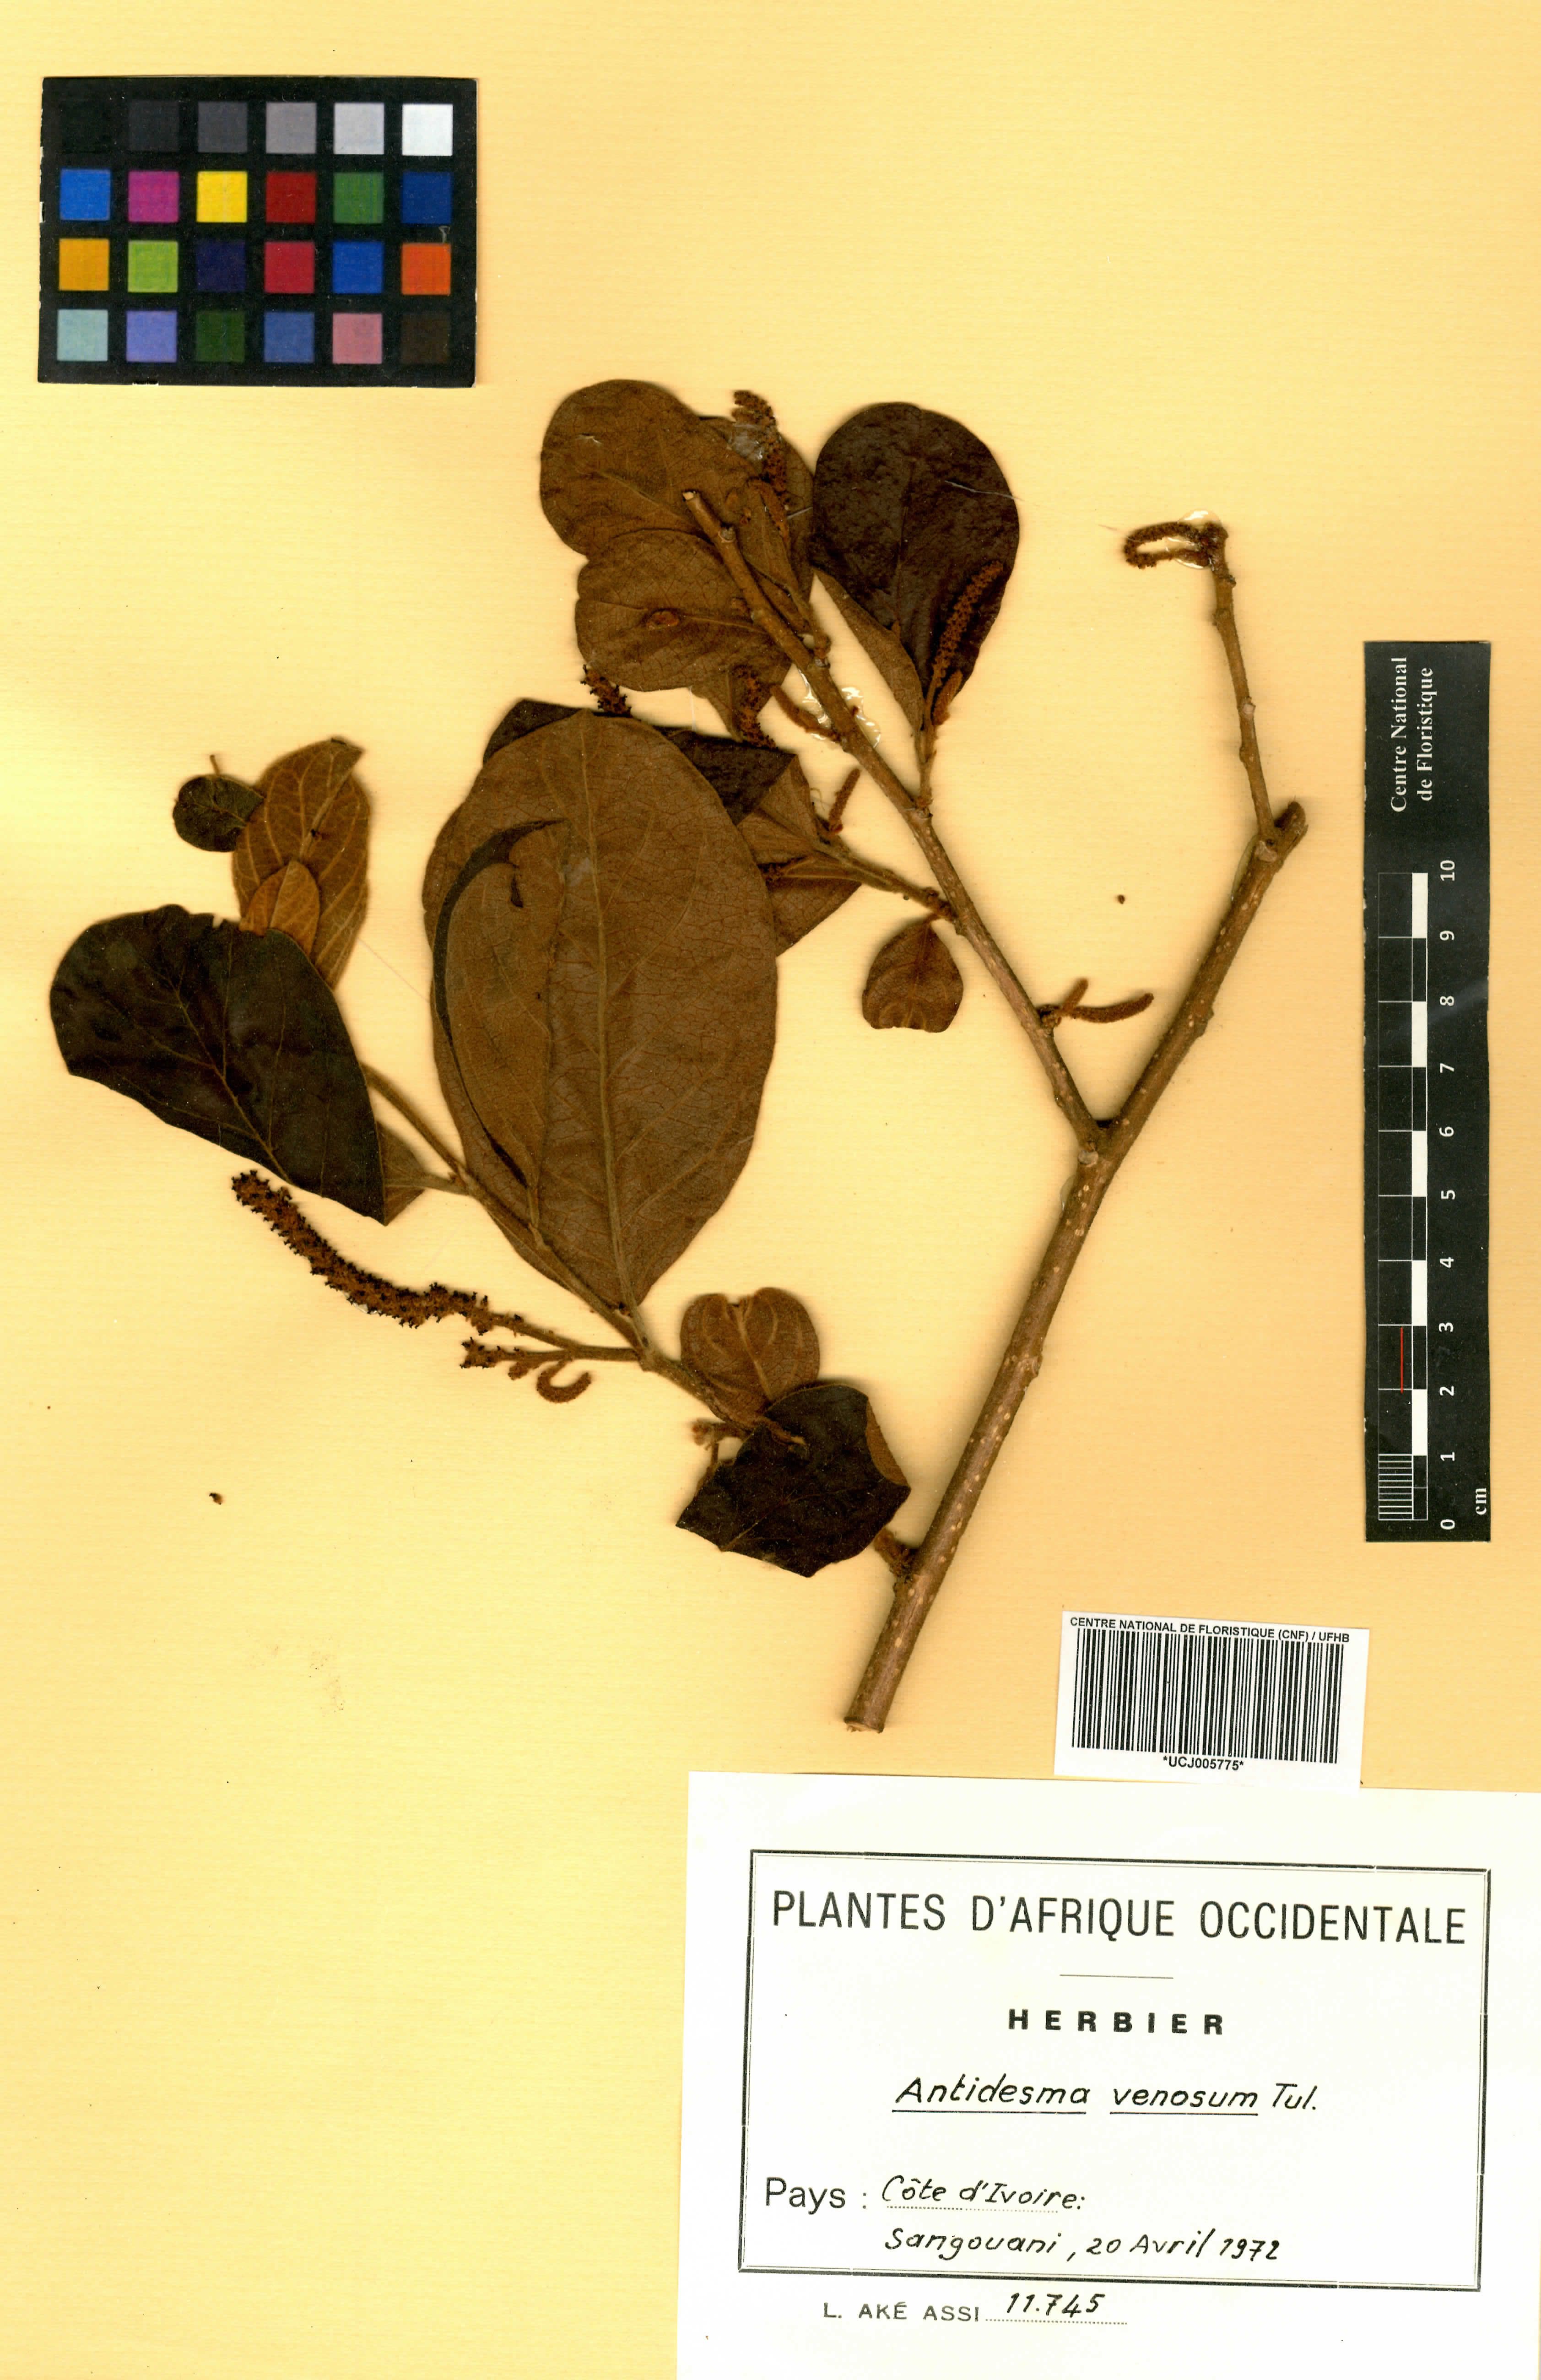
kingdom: Plantae
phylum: Tracheophyta
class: Magnoliopsida
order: Malpighiales
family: Phyllanthaceae
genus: Antidesma
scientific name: Antidesma venosum
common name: Tassel-berry
